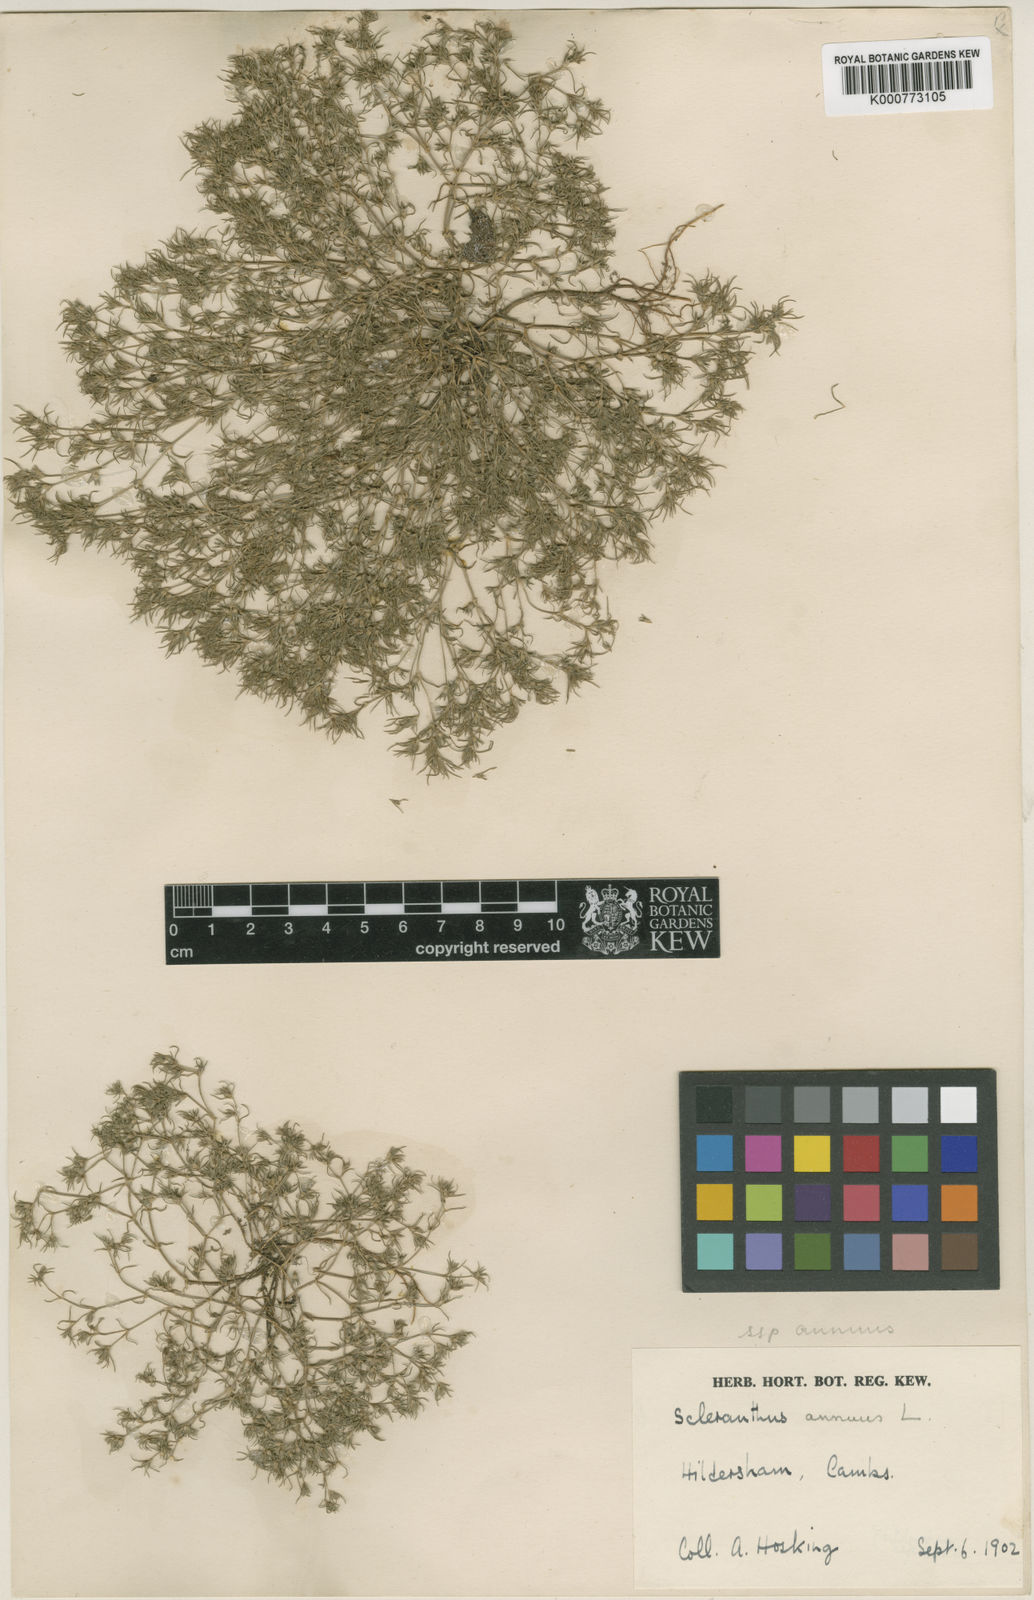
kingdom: Plantae
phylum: Tracheophyta
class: Magnoliopsida
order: Caryophyllales
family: Caryophyllaceae
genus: Scleranthus
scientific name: Scleranthus annuus
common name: Annual knawel
